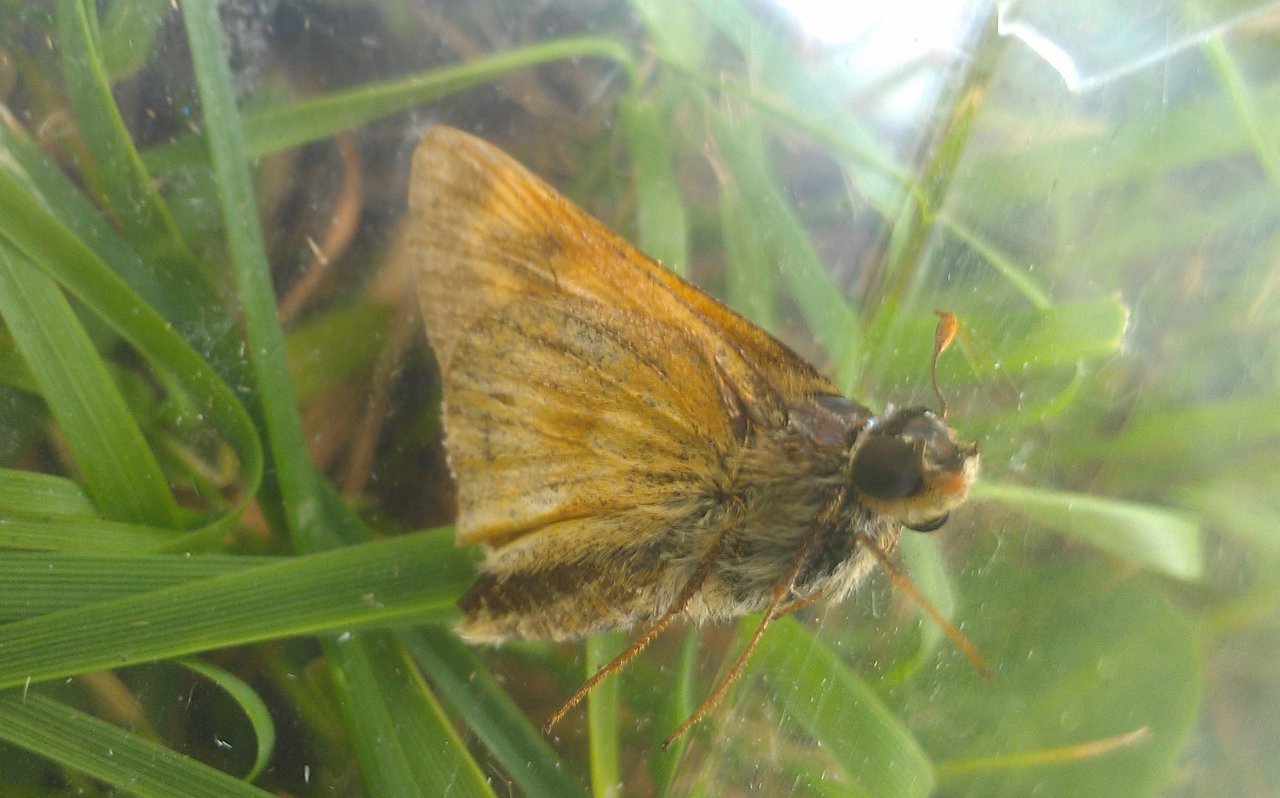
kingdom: Animalia
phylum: Arthropoda
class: Insecta
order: Lepidoptera
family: Hesperiidae
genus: Polites
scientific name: Polites
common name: Long Dash Skipper
